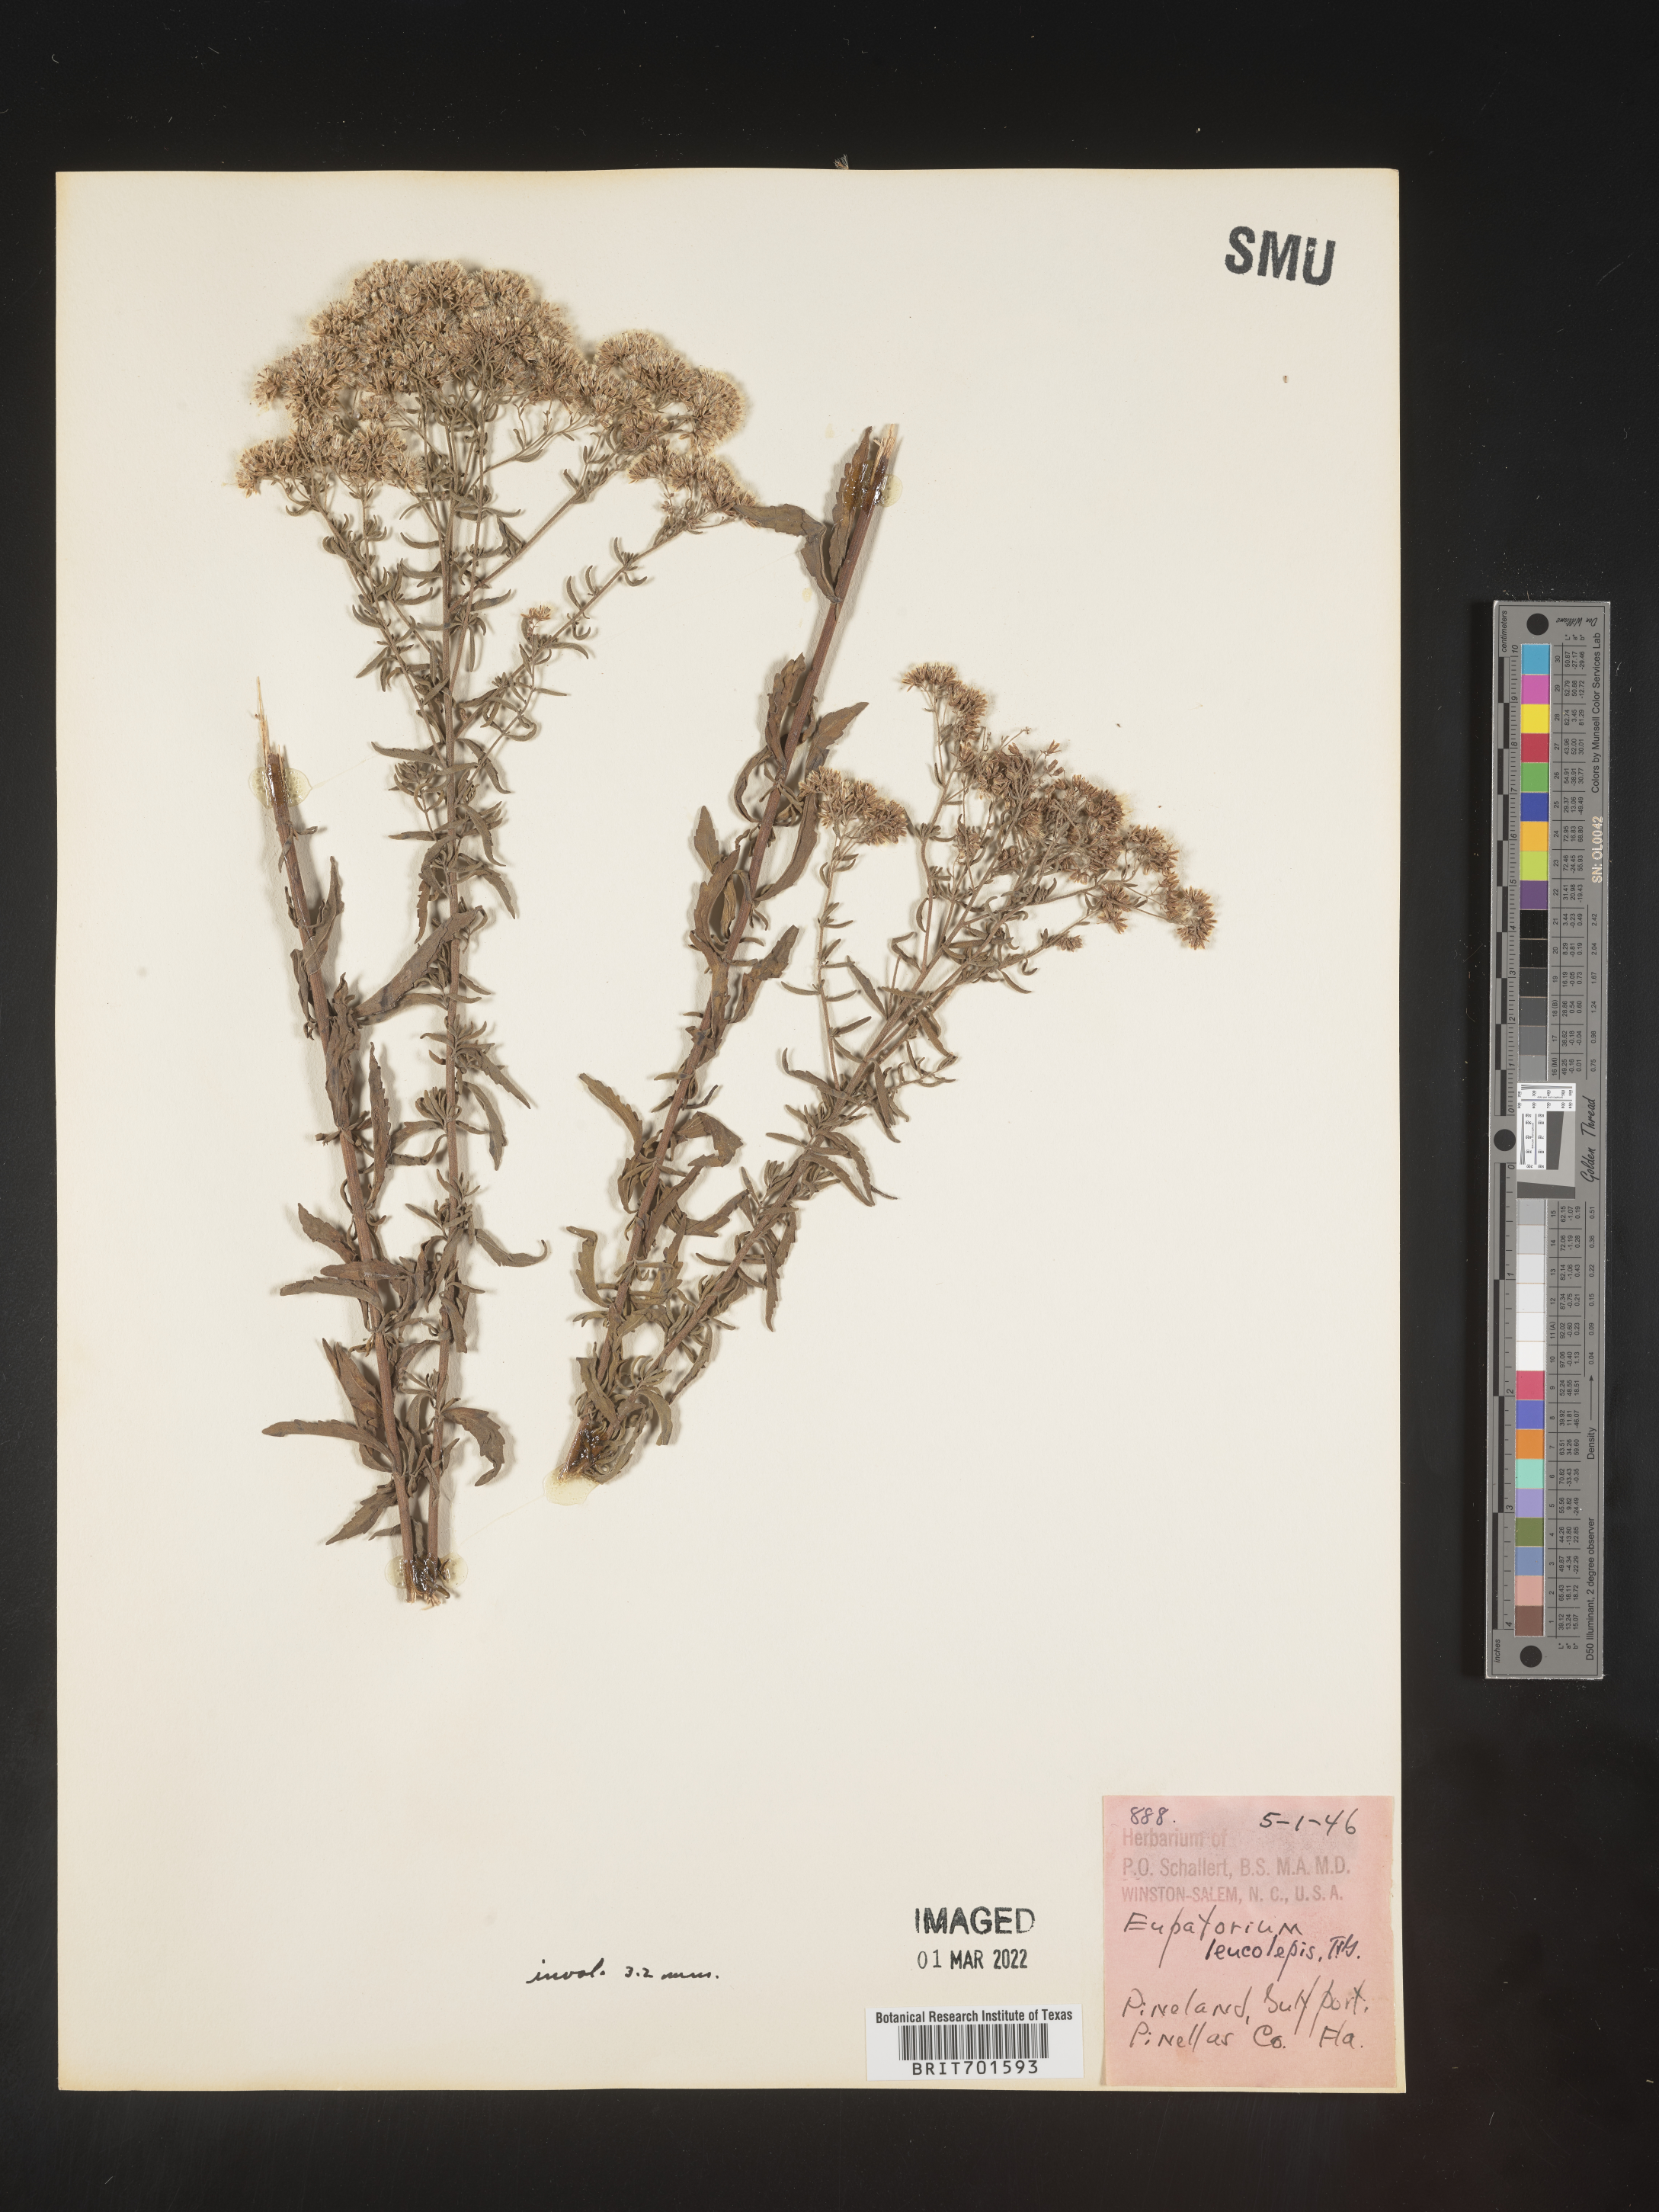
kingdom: Plantae
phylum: Tracheophyta
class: Magnoliopsida
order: Asterales
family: Asteraceae
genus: Eupatorium
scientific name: Eupatorium leucolepis
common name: Justiceweed
